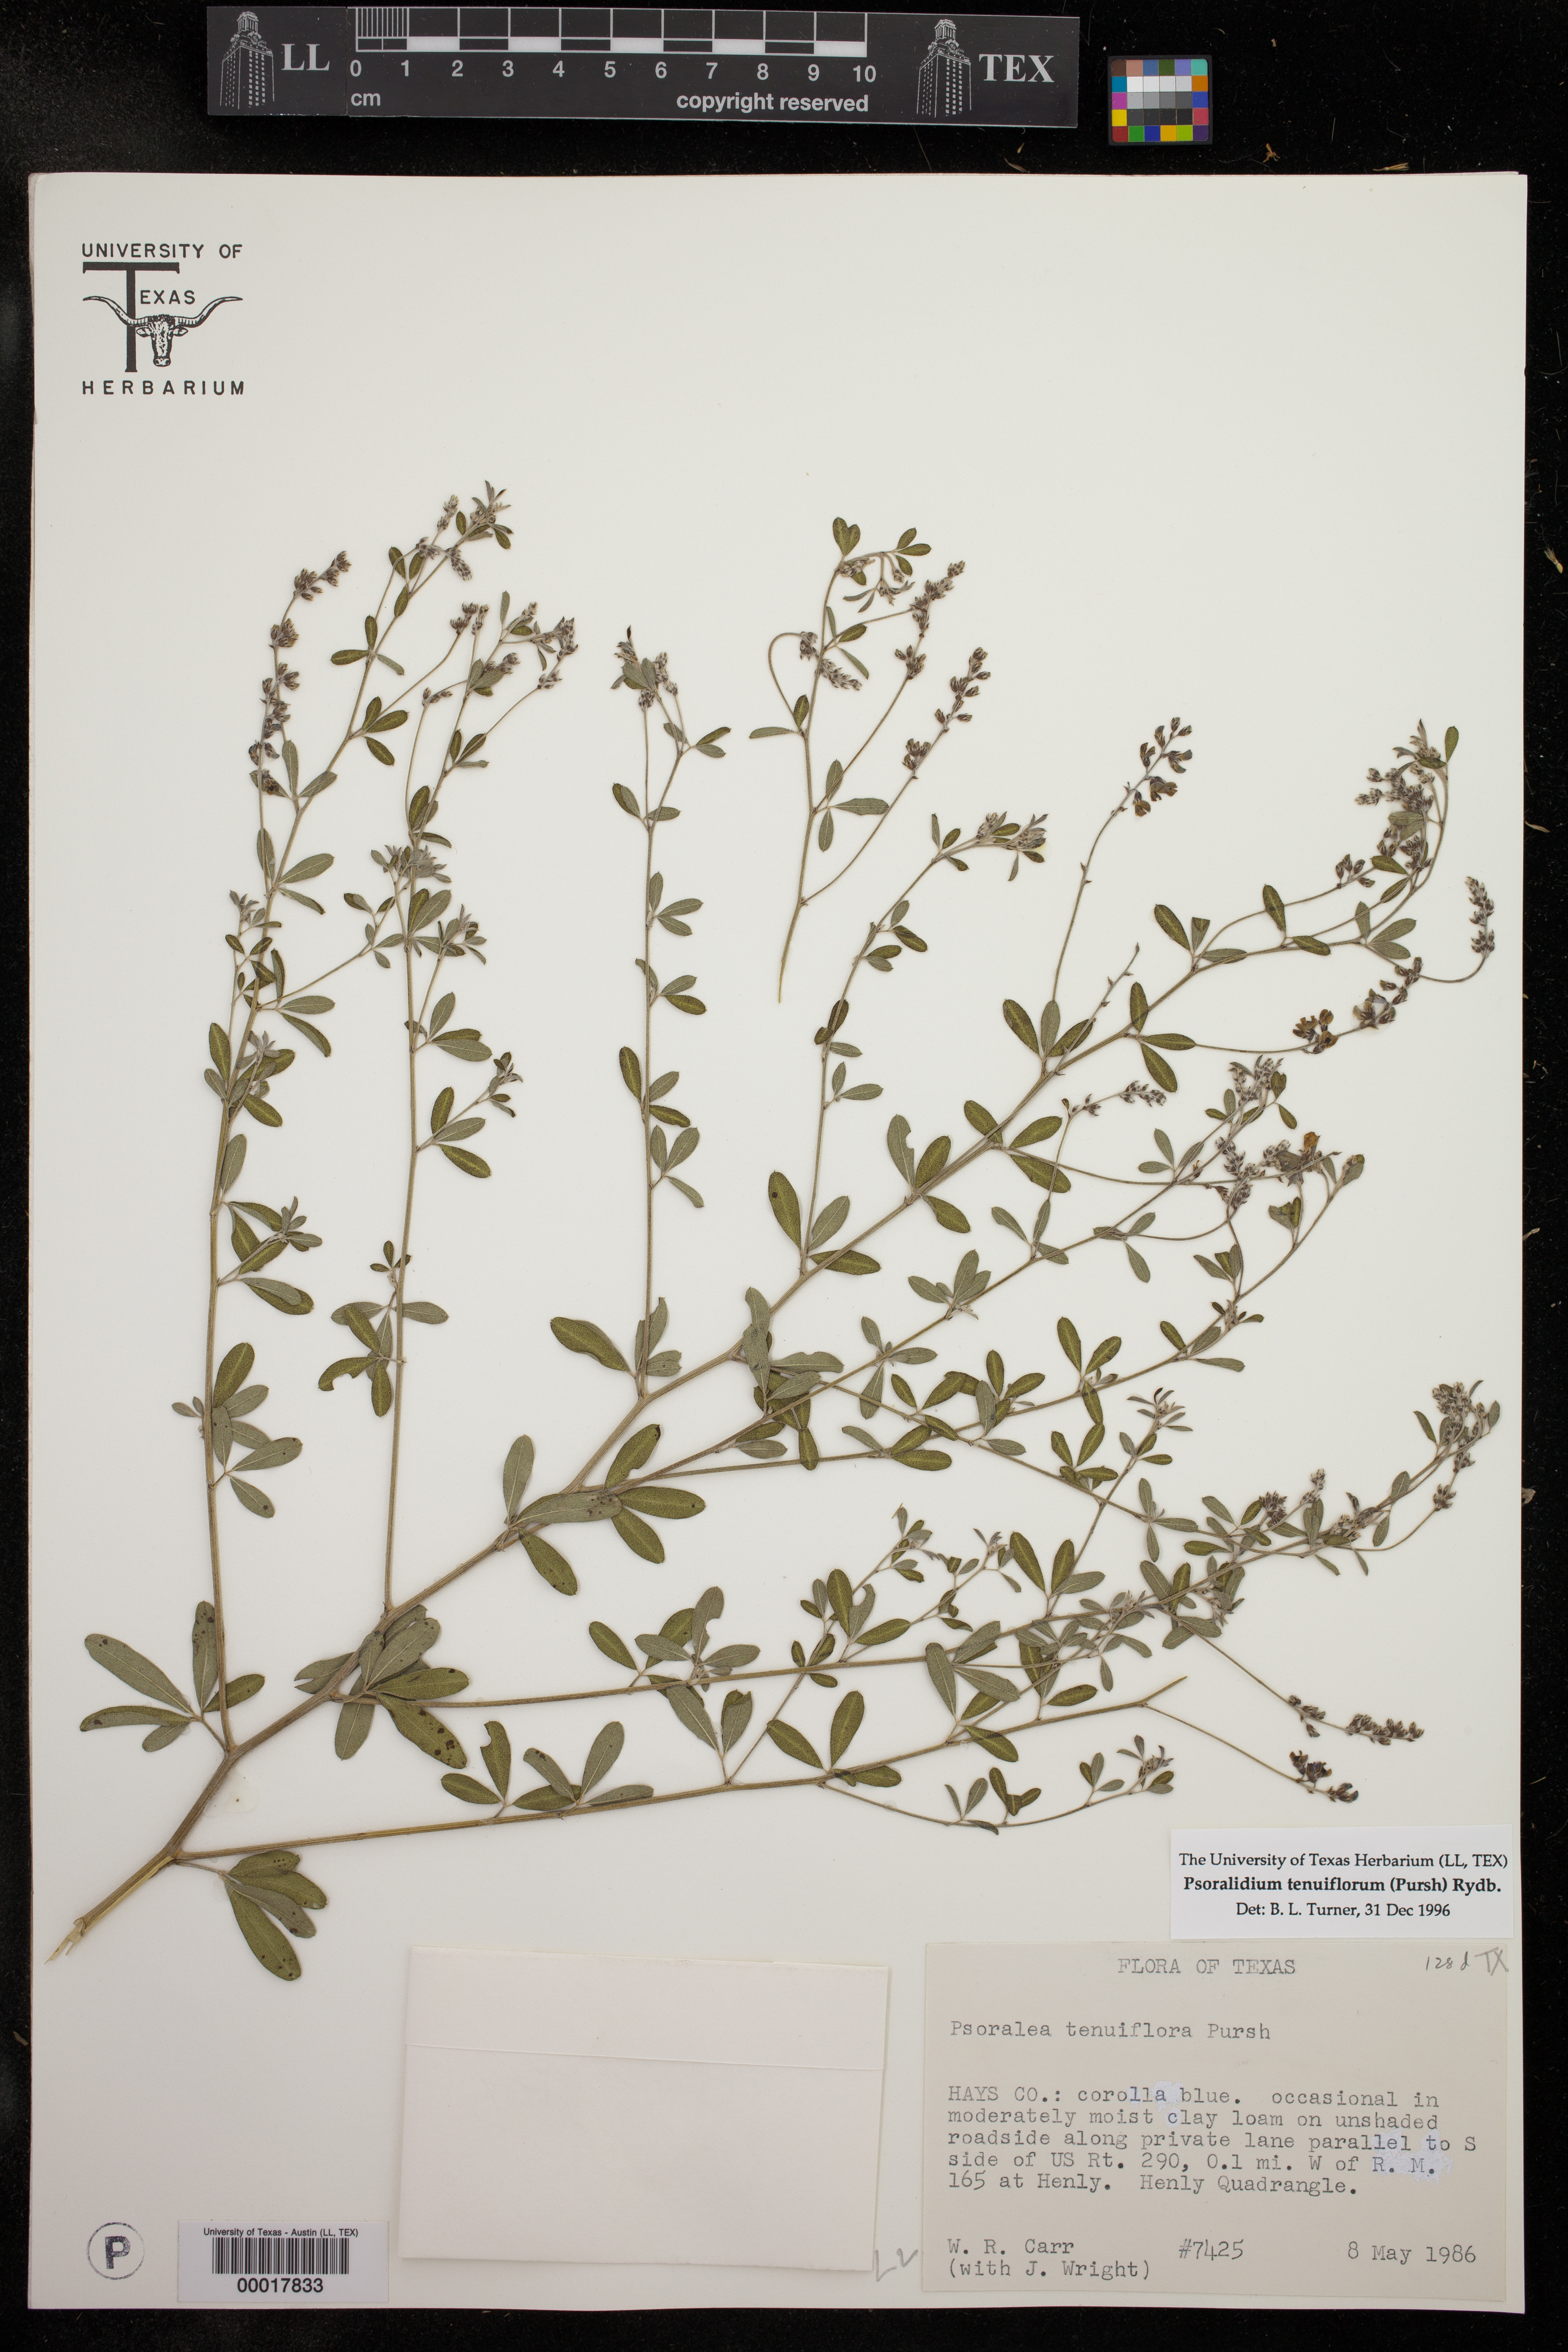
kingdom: Plantae
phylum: Tracheophyta
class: Magnoliopsida
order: Fabales
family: Fabaceae
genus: Pediomelum
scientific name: Pediomelum tenuiflorum
